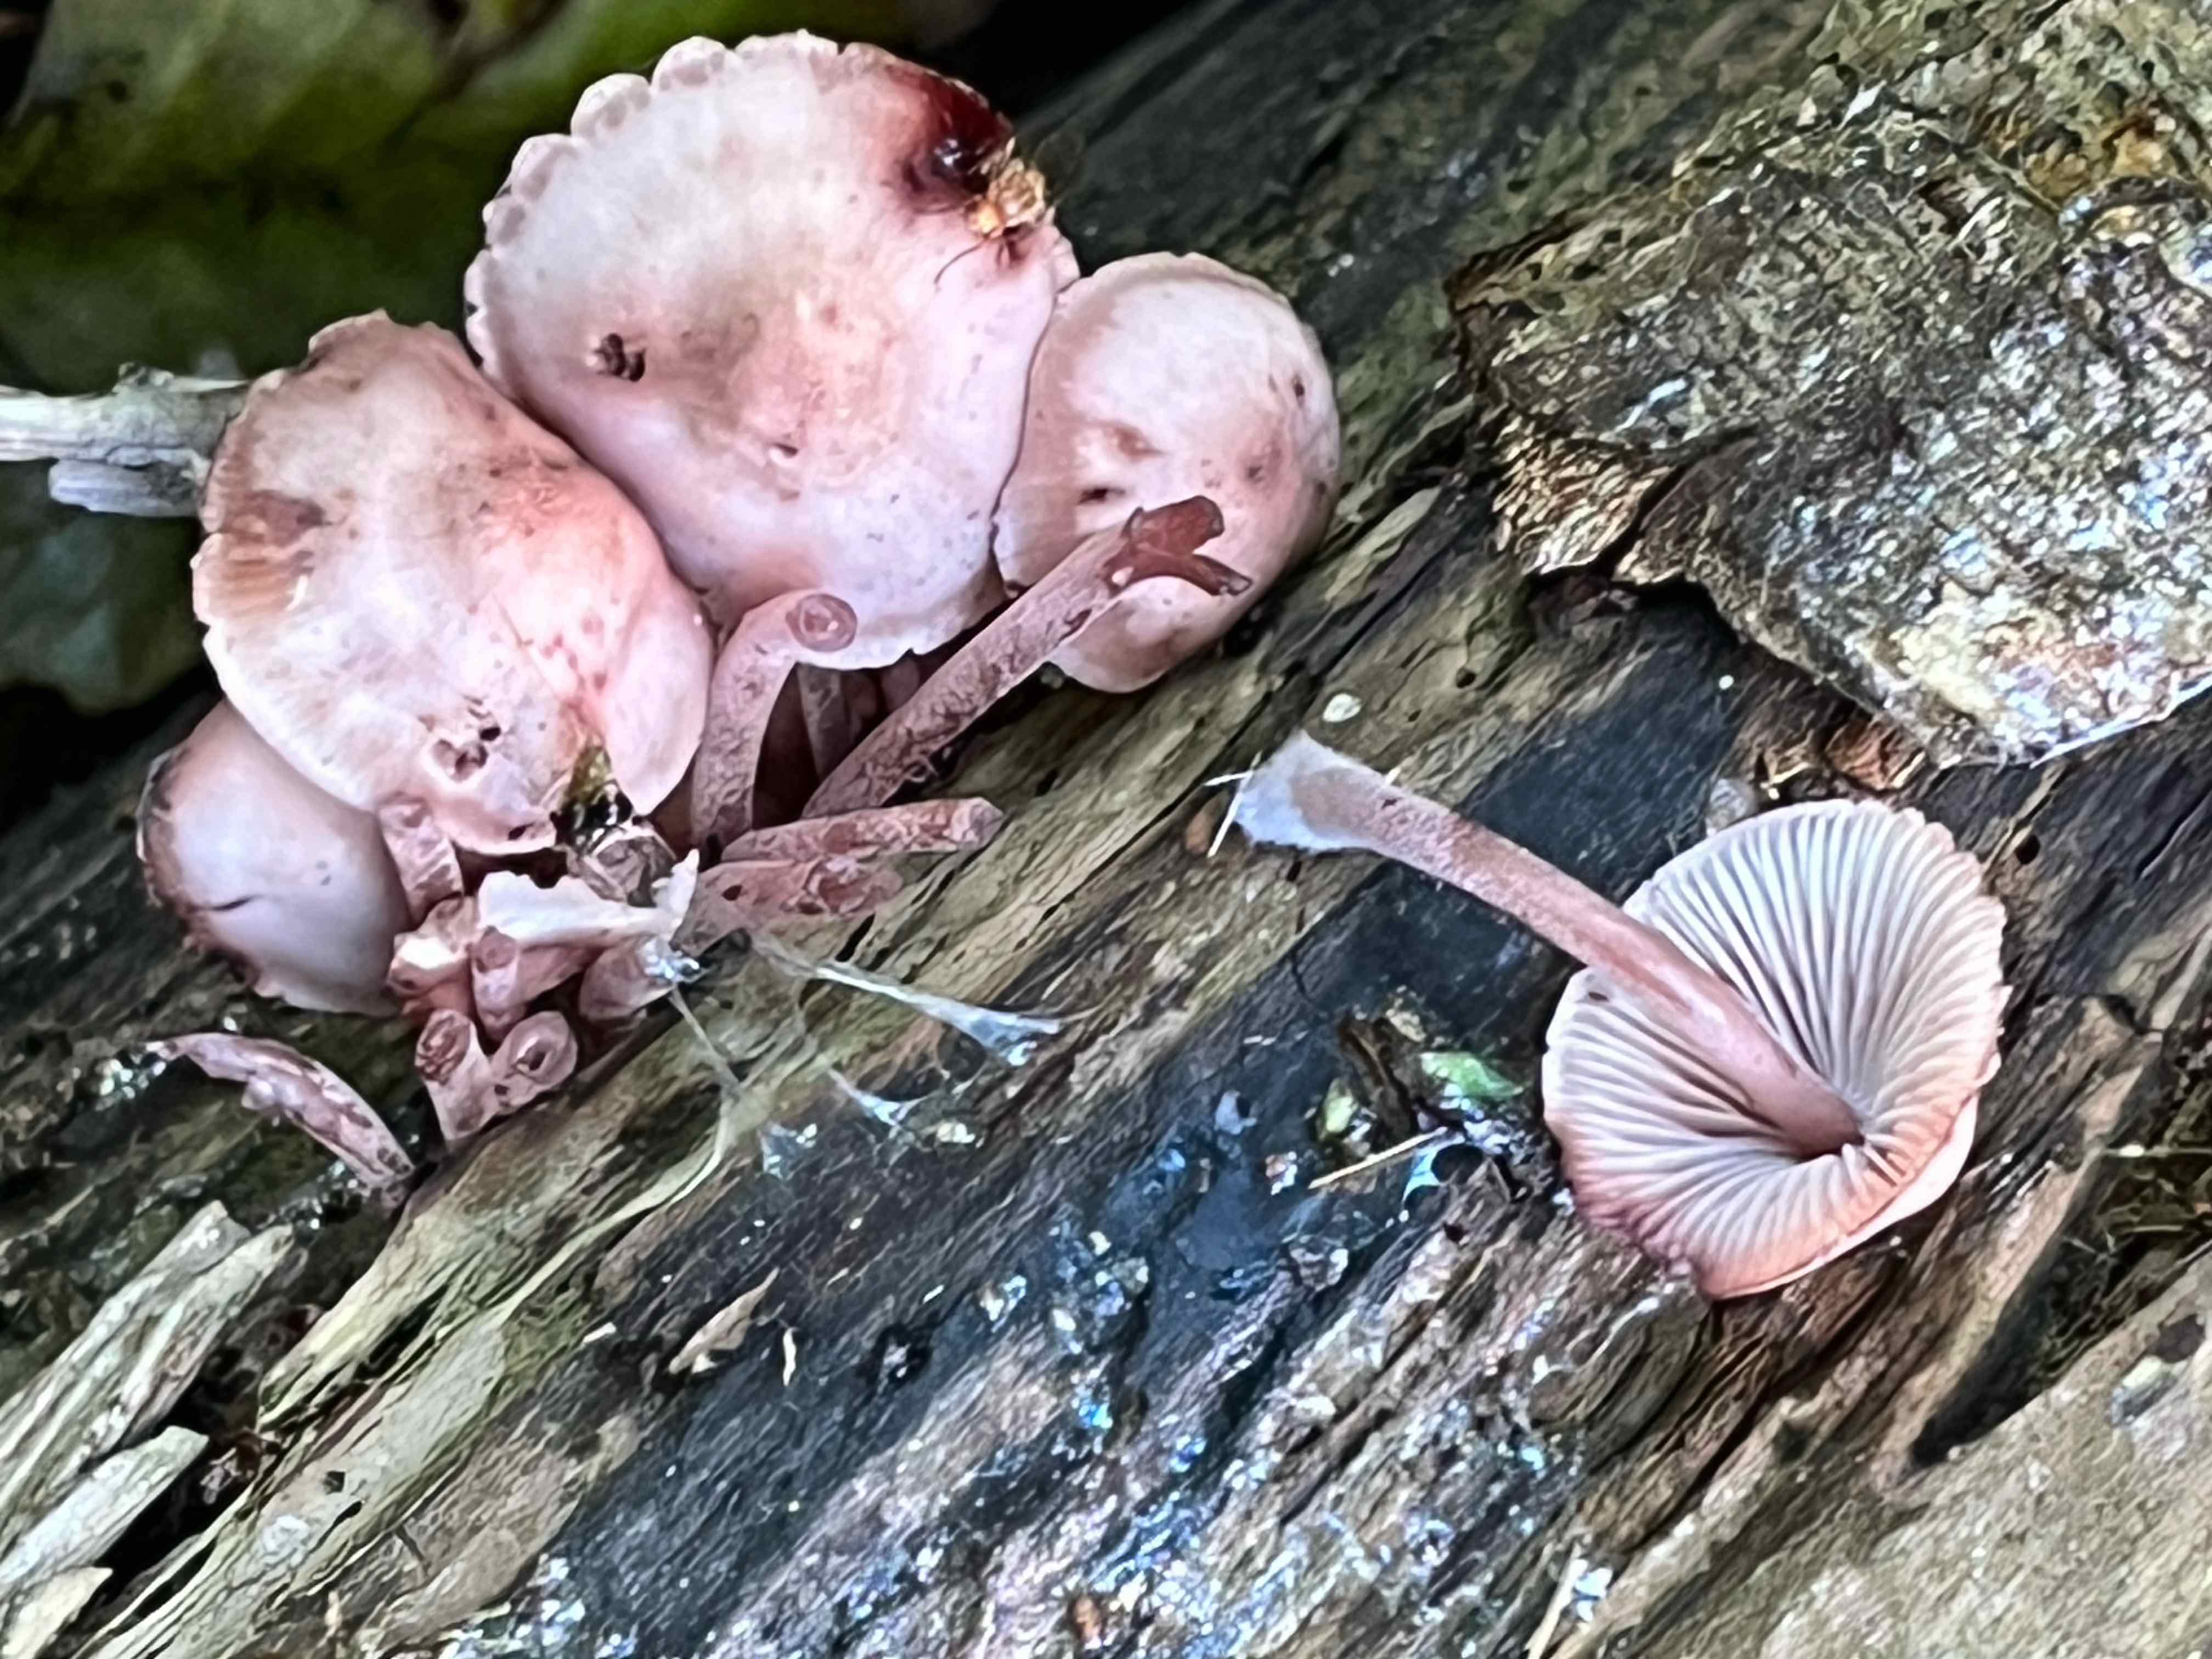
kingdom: Fungi
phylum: Basidiomycota
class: Agaricomycetes
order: Agaricales
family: Mycenaceae
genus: Mycena
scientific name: Mycena haematopus
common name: blødende huesvamp
